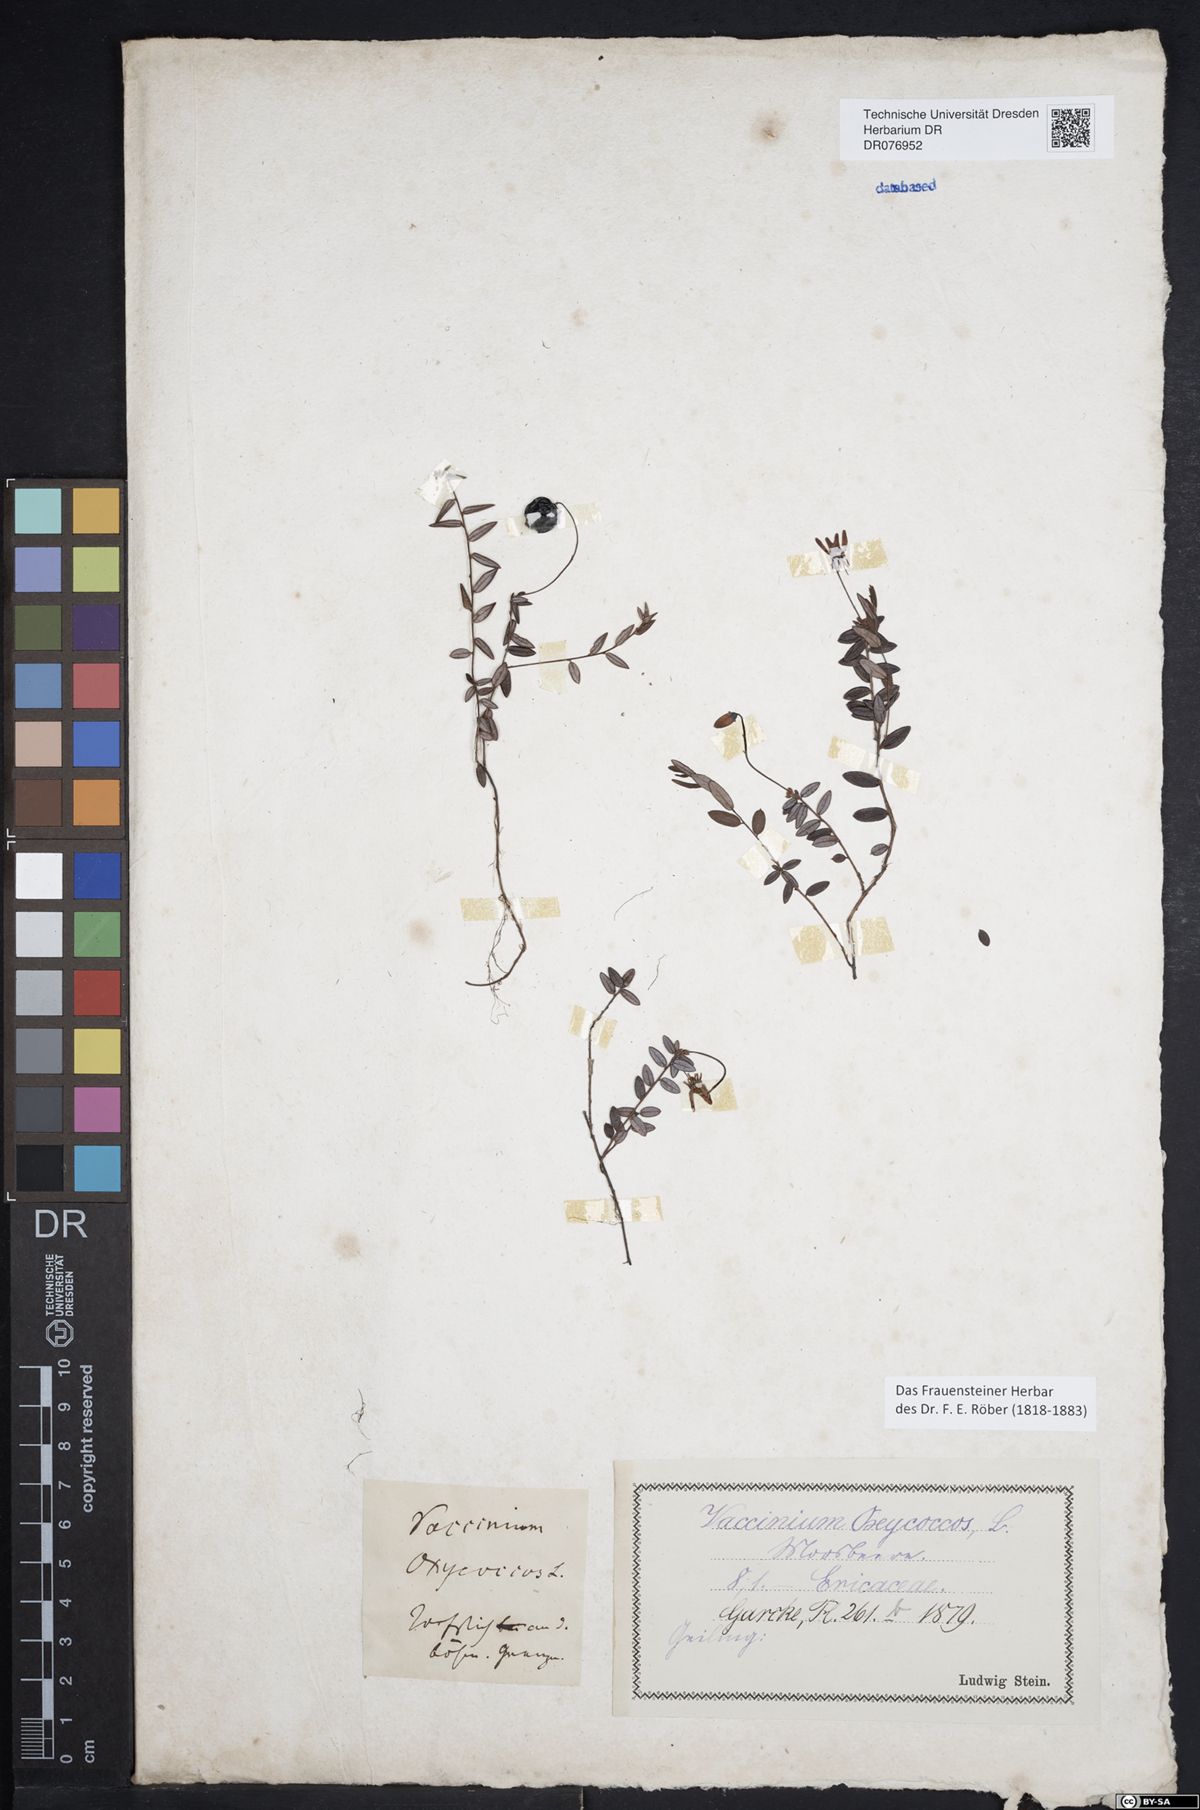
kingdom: Plantae
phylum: Tracheophyta
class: Magnoliopsida
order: Ericales
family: Ericaceae
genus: Vaccinium
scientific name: Vaccinium oxycoccos
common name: Cranberry
